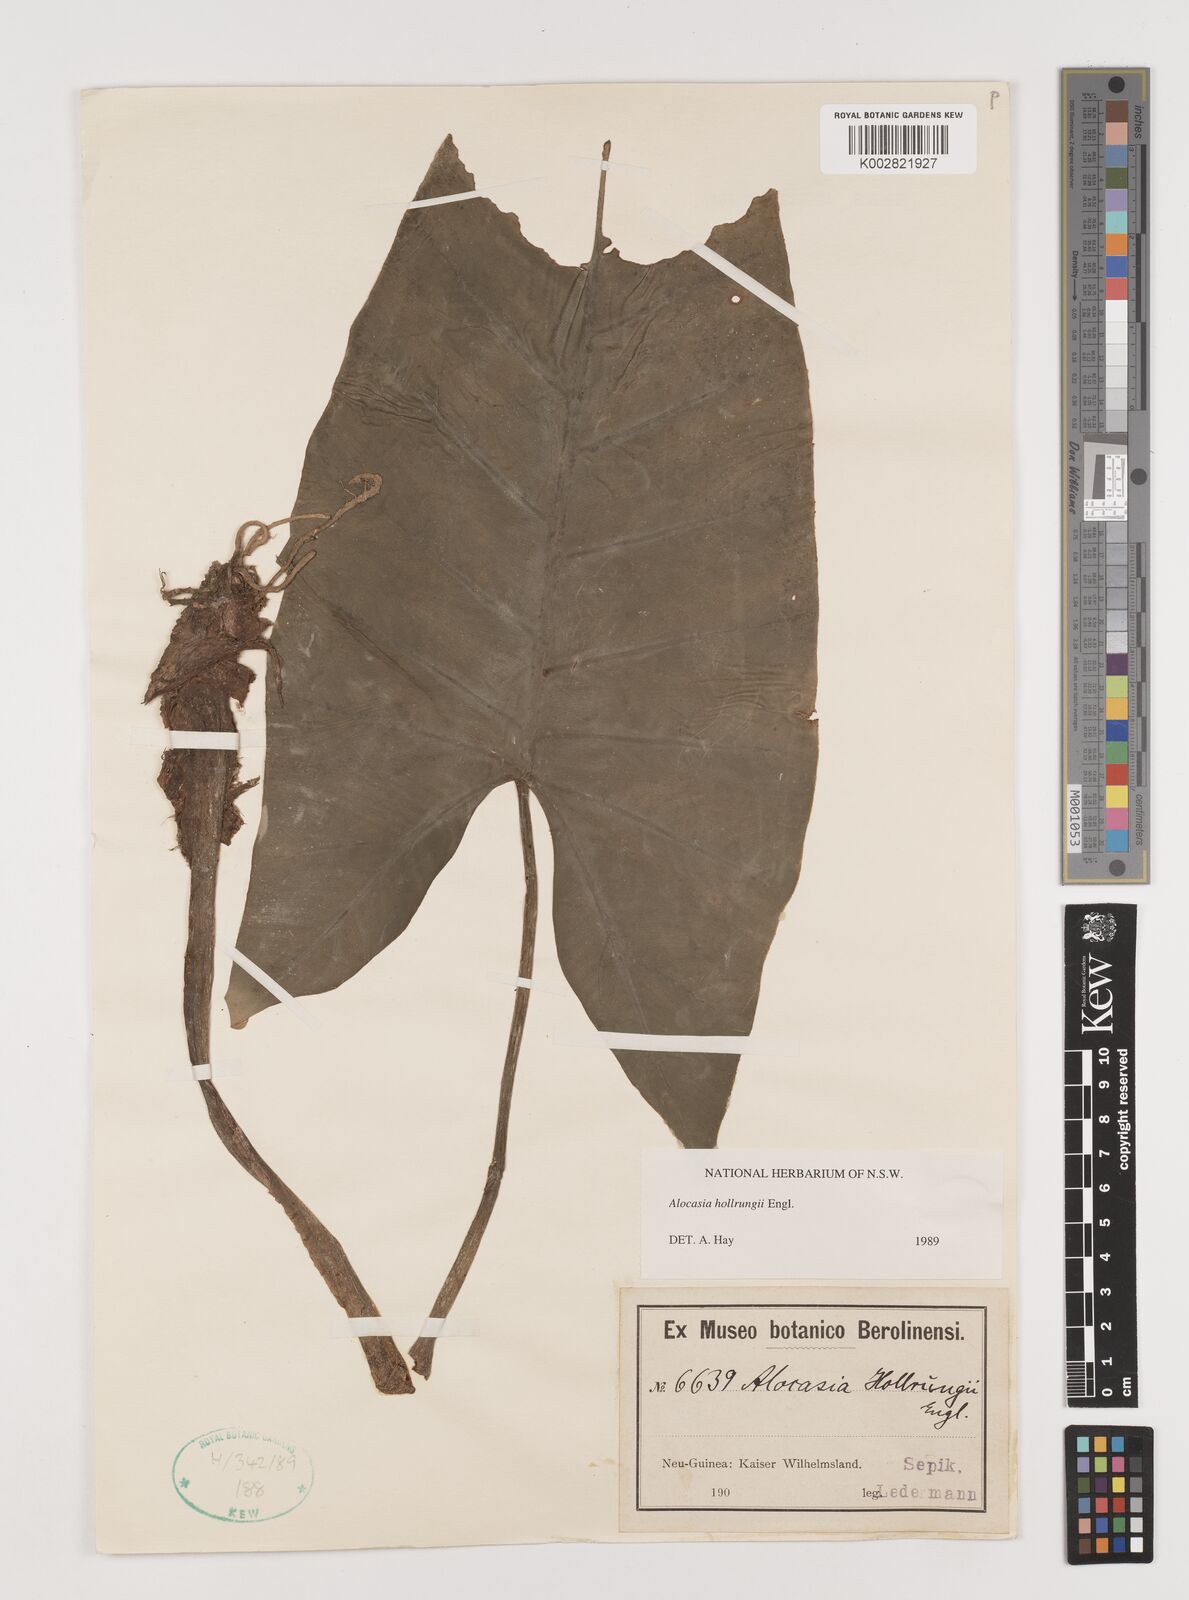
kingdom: Plantae
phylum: Tracheophyta
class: Liliopsida
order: Alismatales
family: Araceae
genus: Alocasia
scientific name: Alocasia hollrungii
